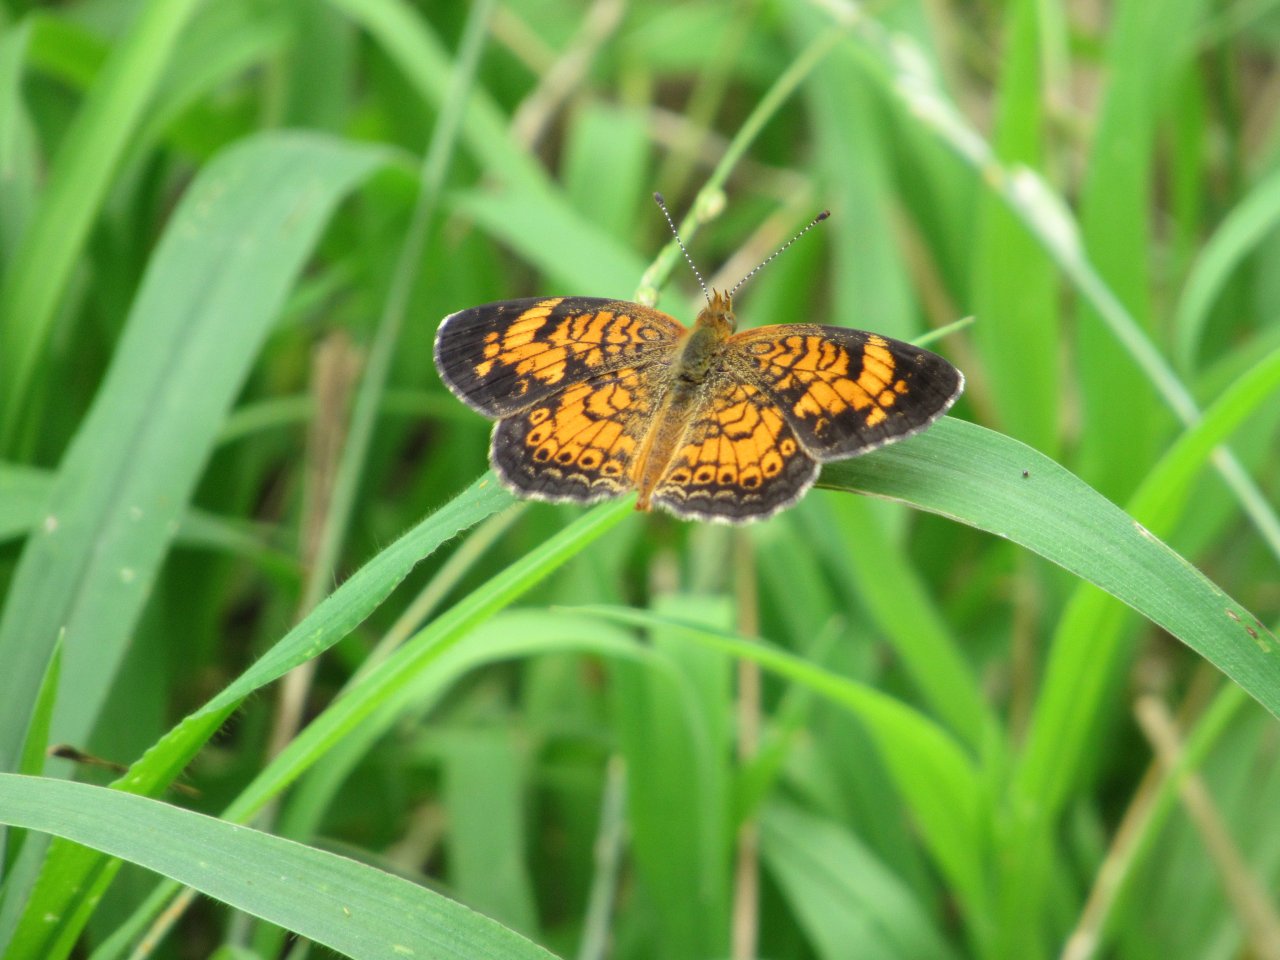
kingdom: Animalia
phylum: Arthropoda
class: Insecta
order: Lepidoptera
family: Nymphalidae
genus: Phyciodes
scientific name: Phyciodes tharos
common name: Pearl Crescent
